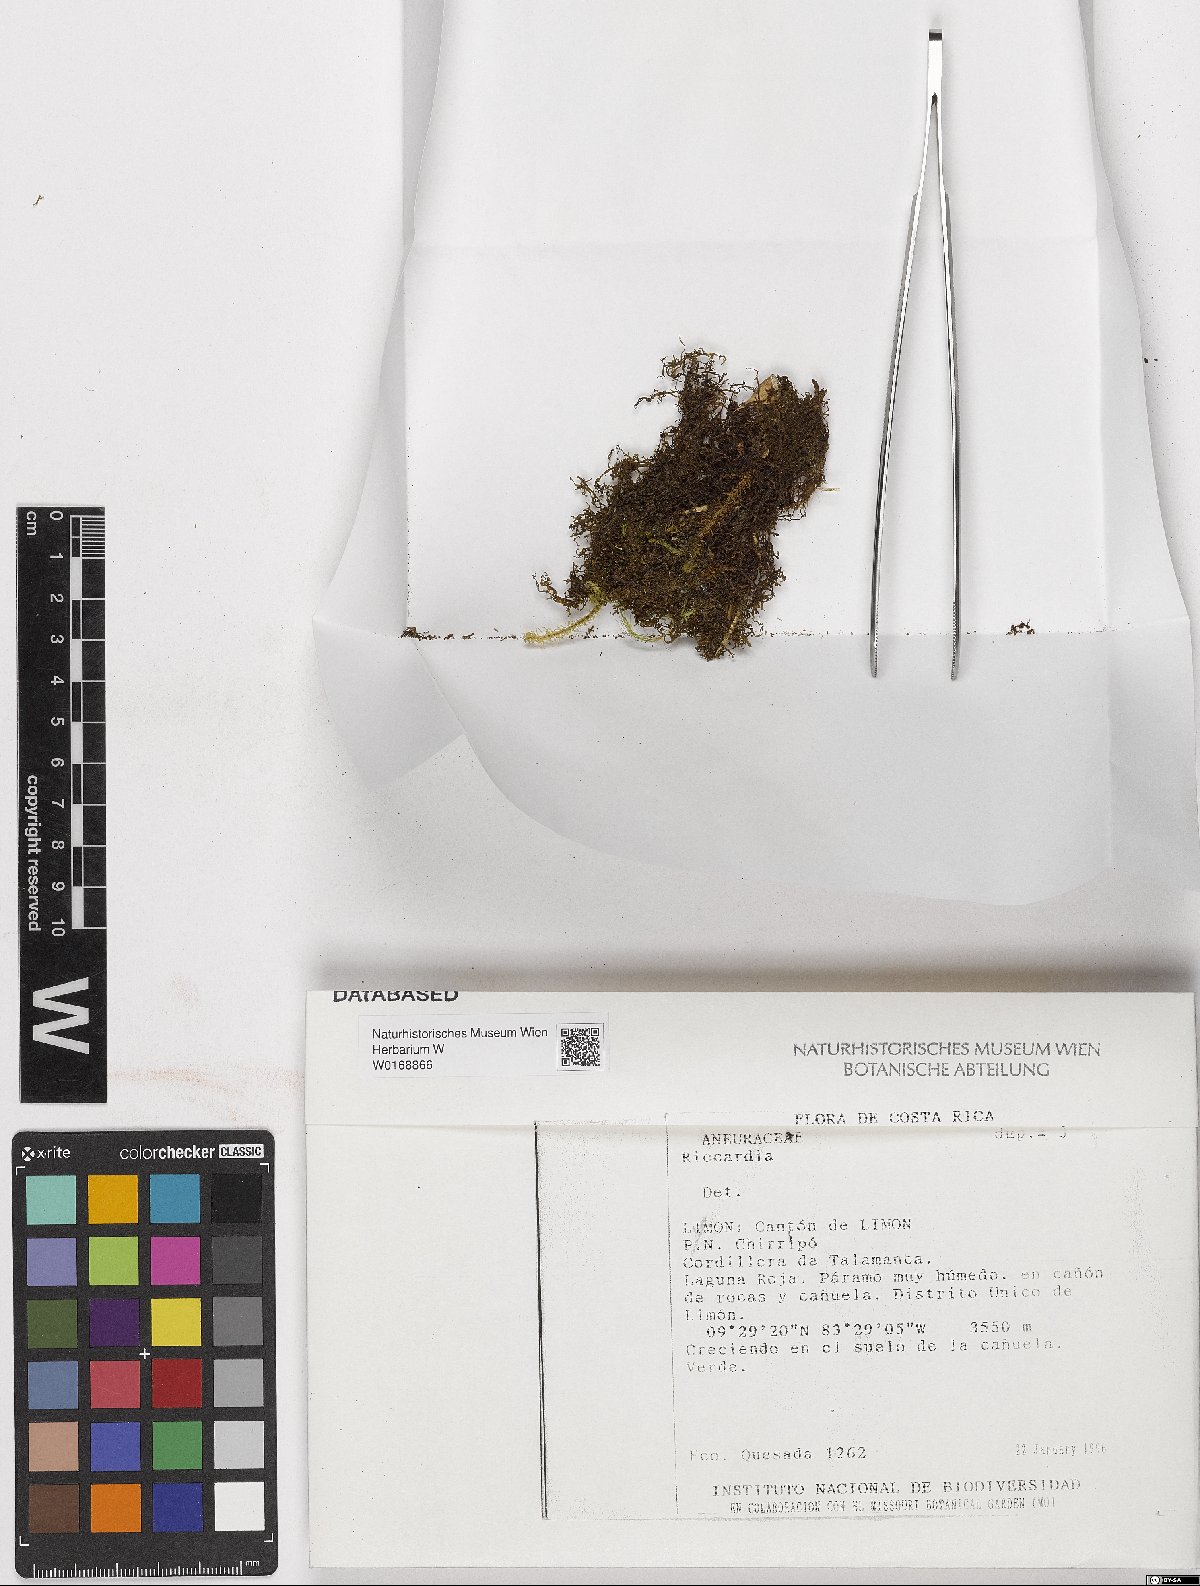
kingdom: Plantae
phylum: Marchantiophyta
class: Jungermanniopsida
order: Metzgeriales
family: Aneuraceae
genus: Riccardia
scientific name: Riccardia
